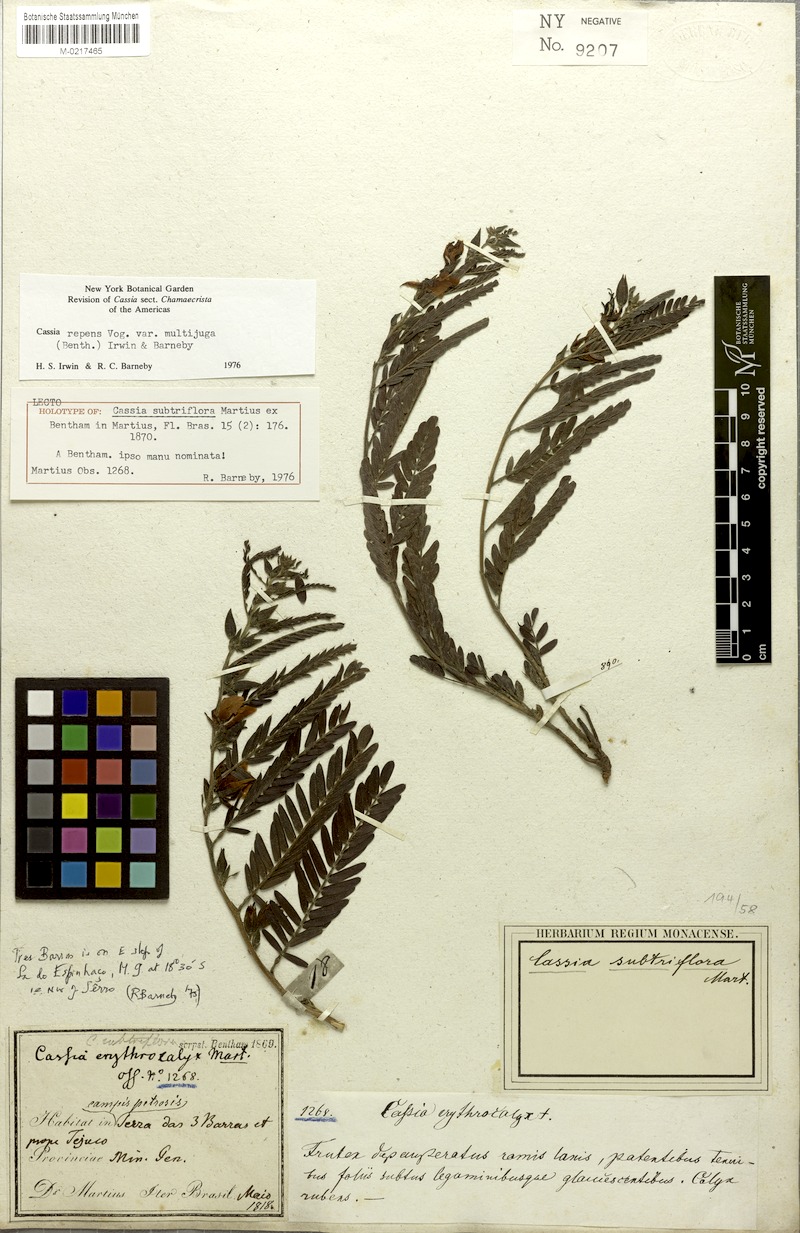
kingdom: Plantae
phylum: Tracheophyta
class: Magnoliopsida
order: Fabales
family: Fabaceae
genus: Chamaecrista
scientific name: Chamaecrista repens
